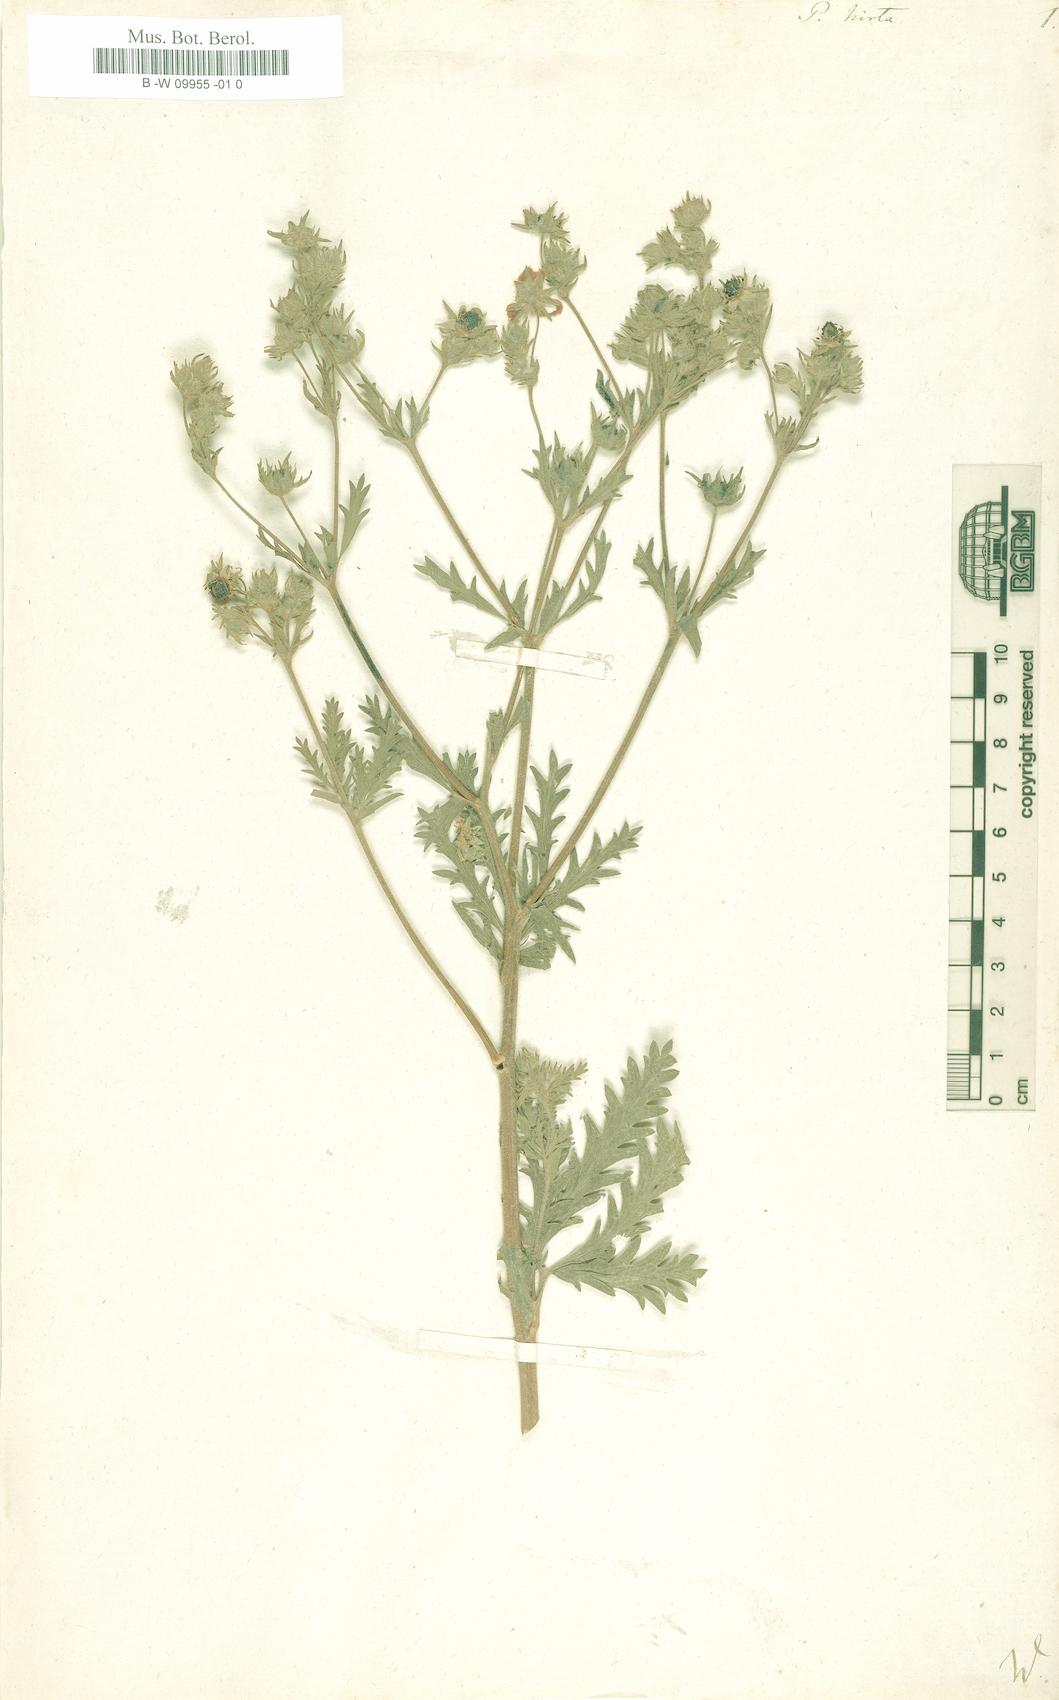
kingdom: Plantae
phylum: Tracheophyta
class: Magnoliopsida
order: Rosales
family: Rosaceae
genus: Potentilla
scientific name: Potentilla hirta
